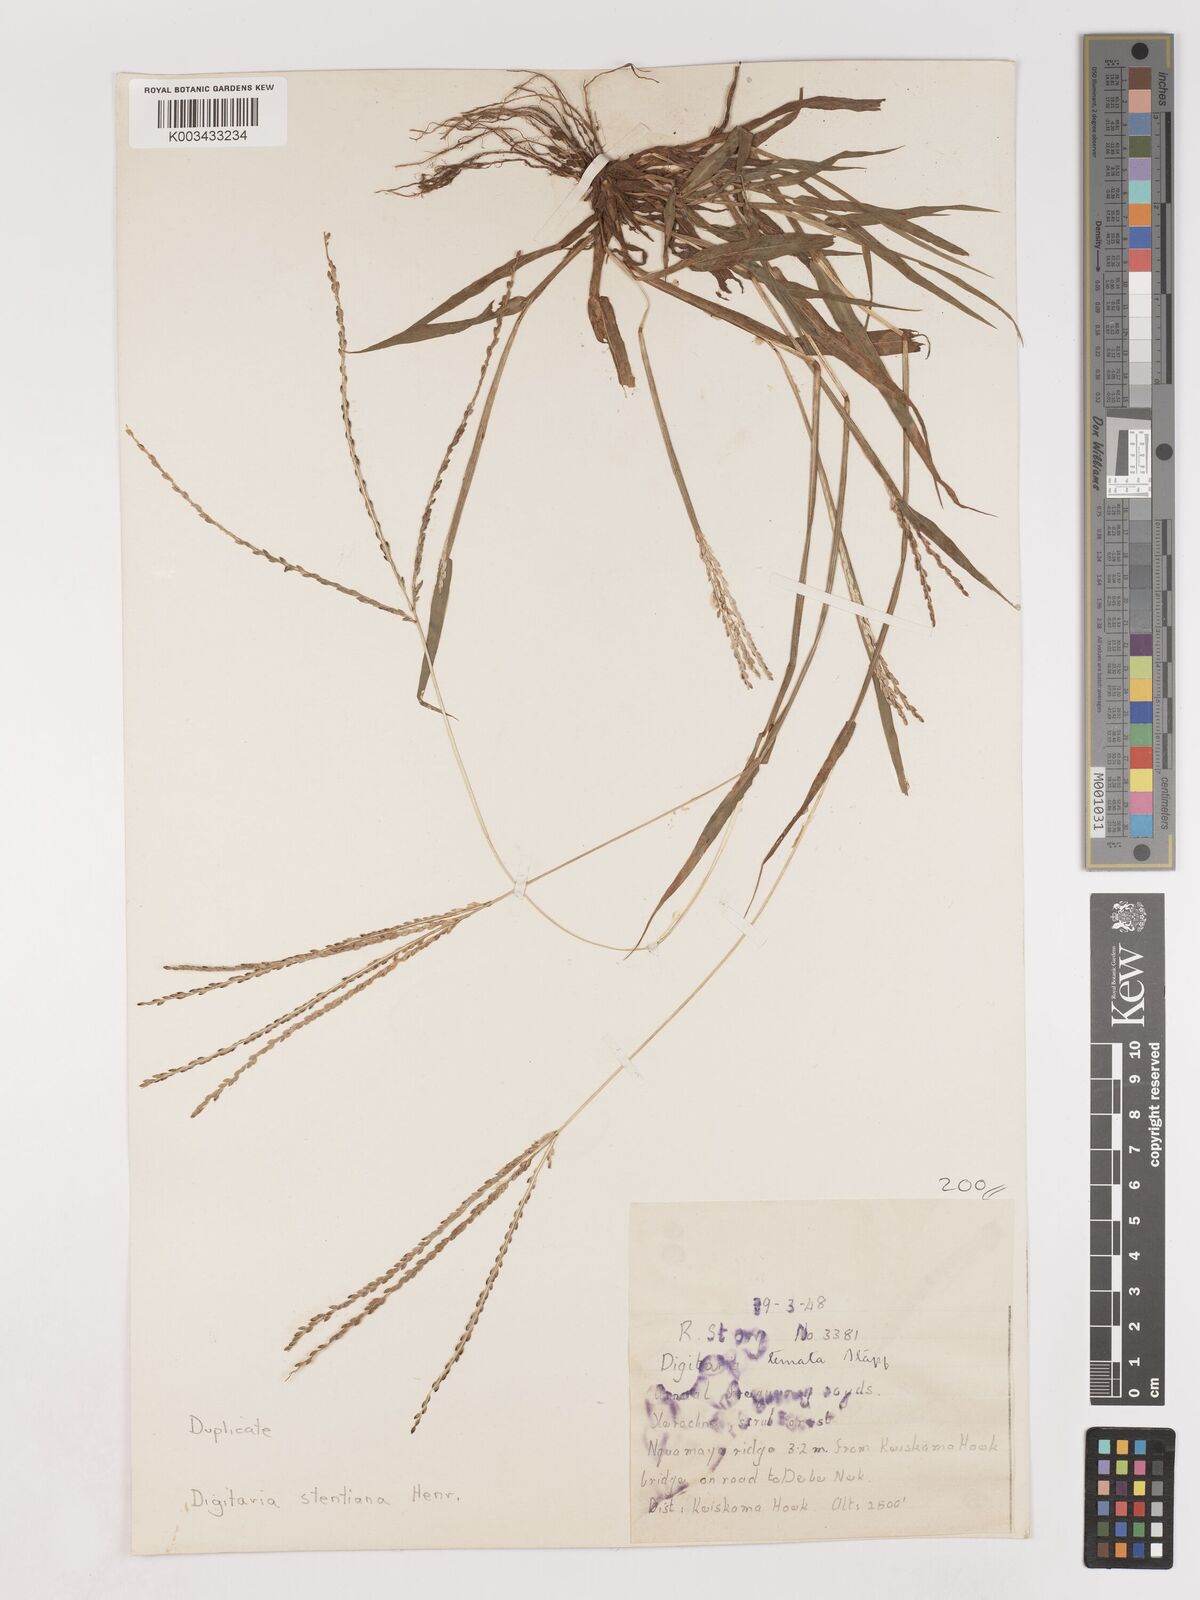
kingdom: Plantae
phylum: Tracheophyta
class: Liliopsida
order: Poales
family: Poaceae
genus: Digitaria
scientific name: Digitaria eriantha
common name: Digitgrass
